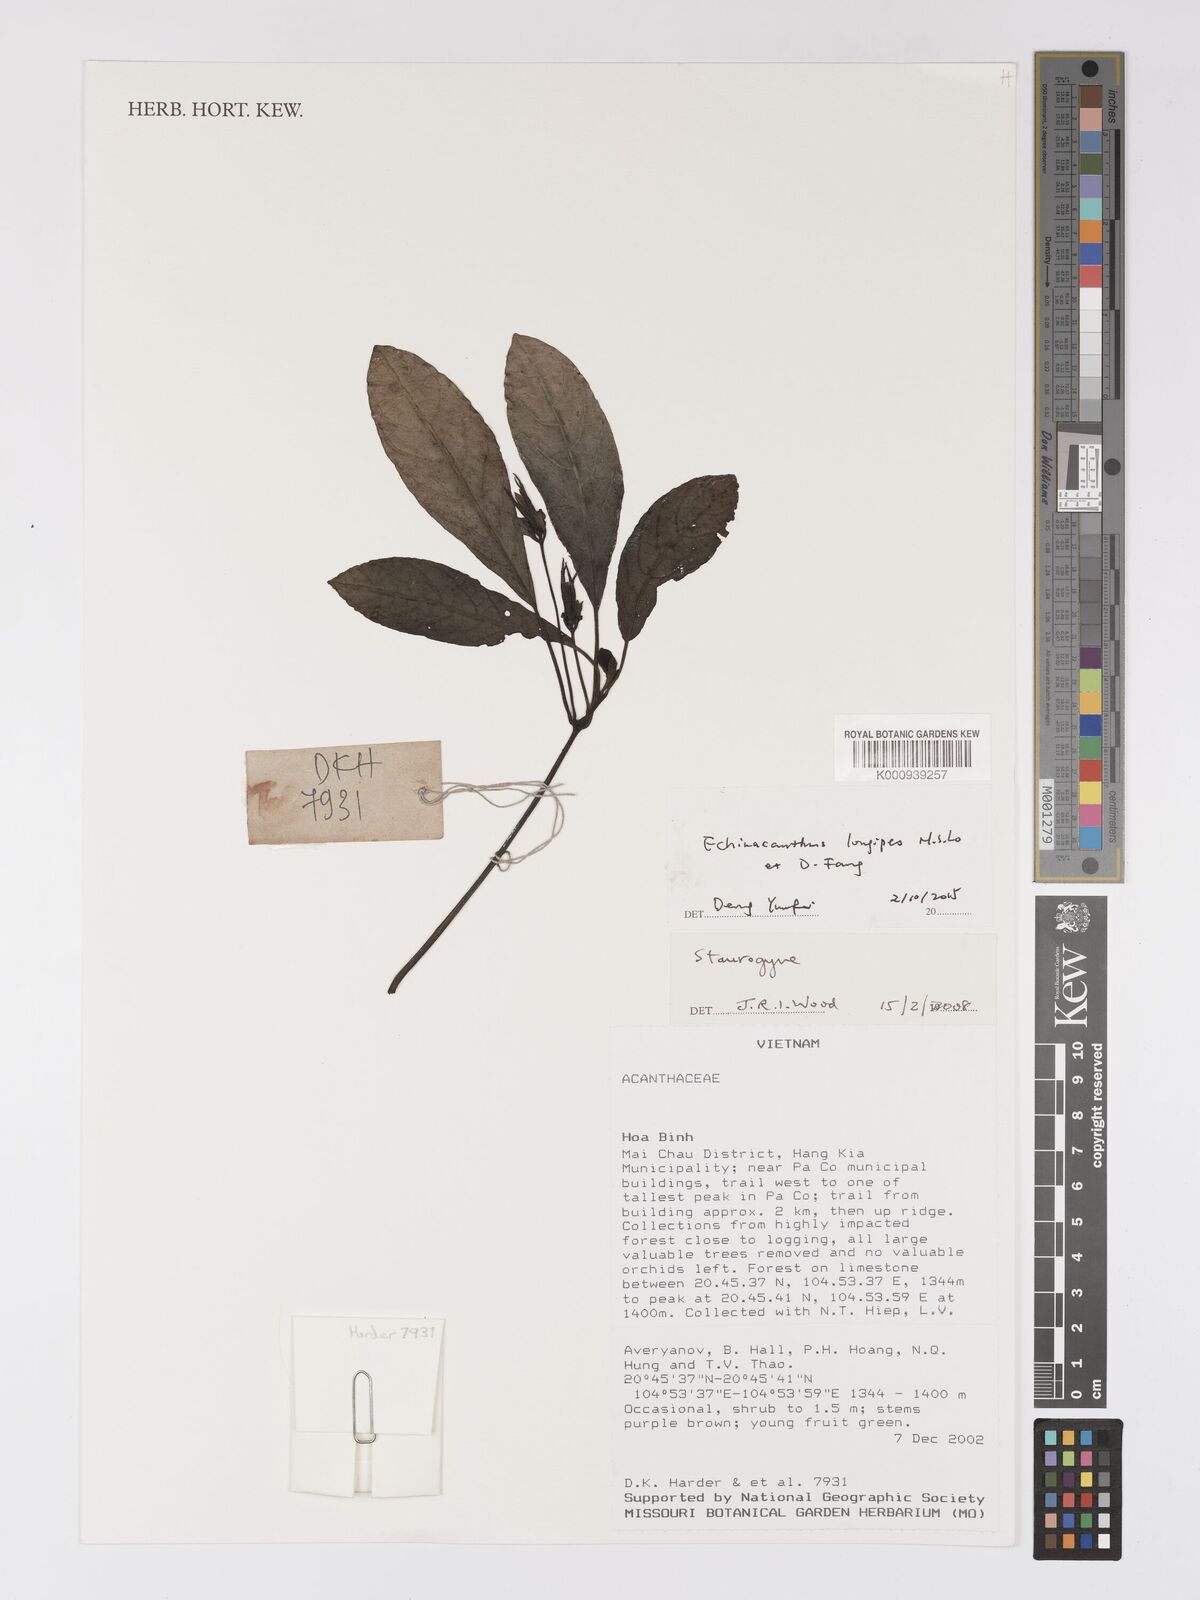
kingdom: Plantae
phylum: Tracheophyta
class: Magnoliopsida
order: Lamiales
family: Acanthaceae
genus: Echinacanthus
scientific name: Echinacanthus longipes
